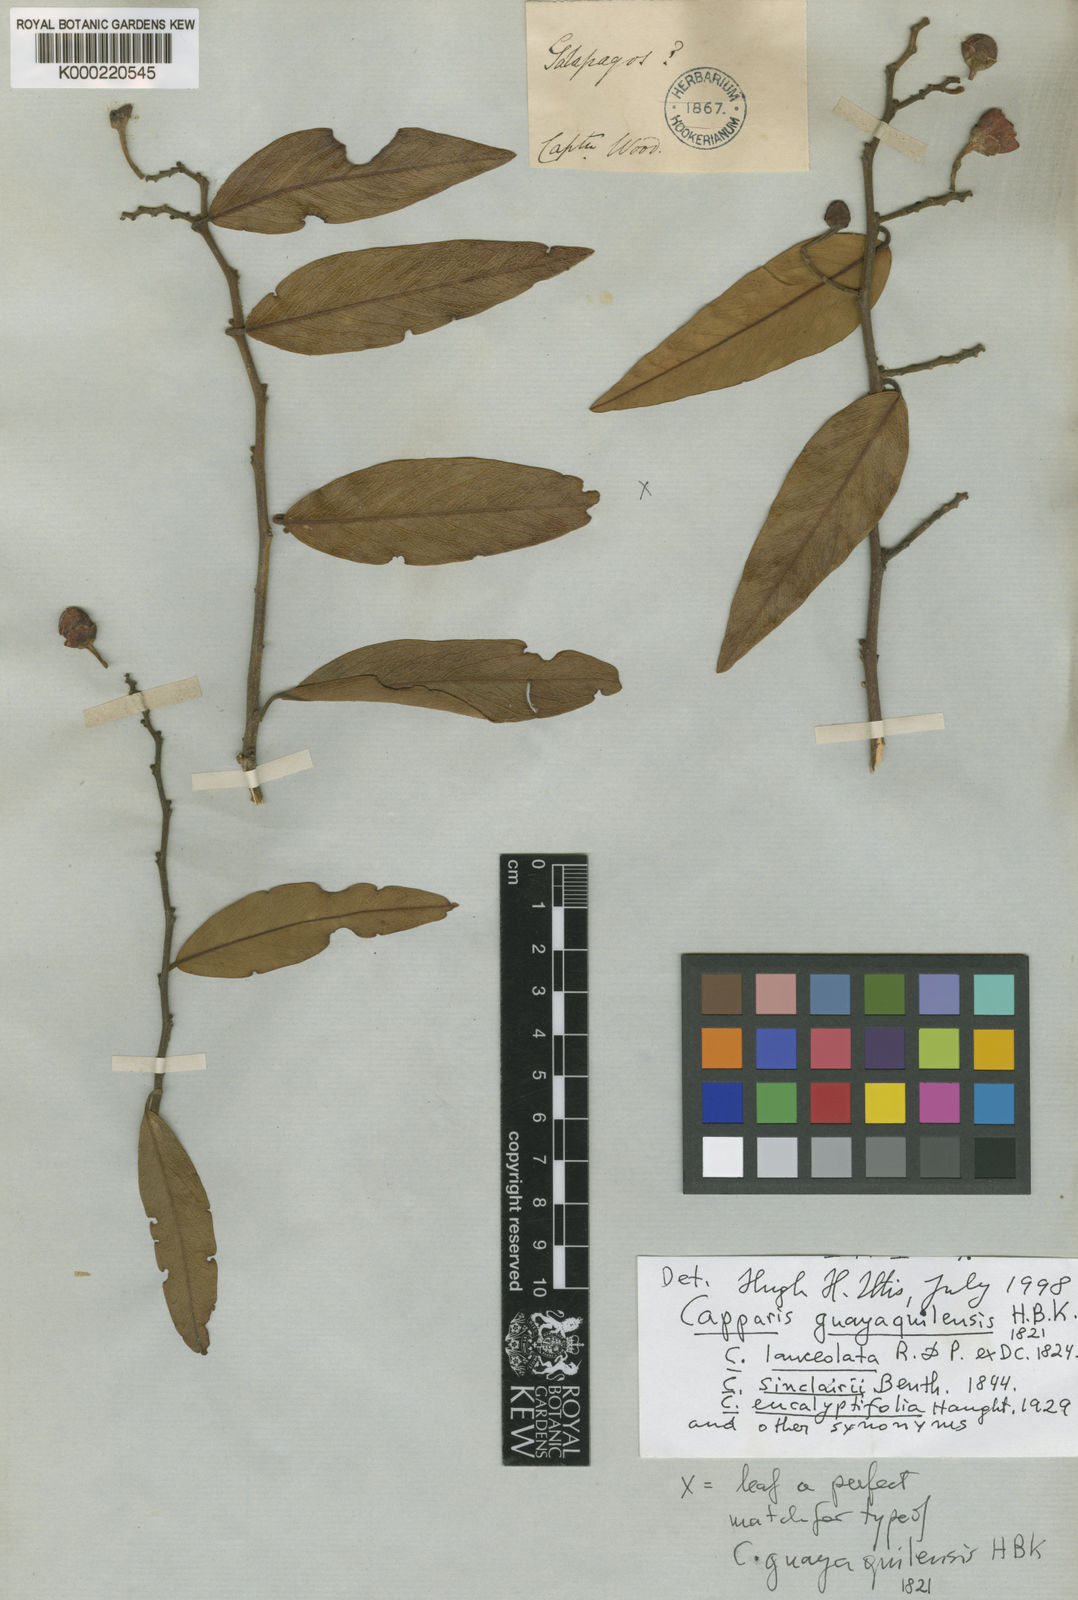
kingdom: Plantae
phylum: Tracheophyta
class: Magnoliopsida
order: Brassicales
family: Capparaceae
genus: Cynophalla
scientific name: Cynophalla guayaquilensis
